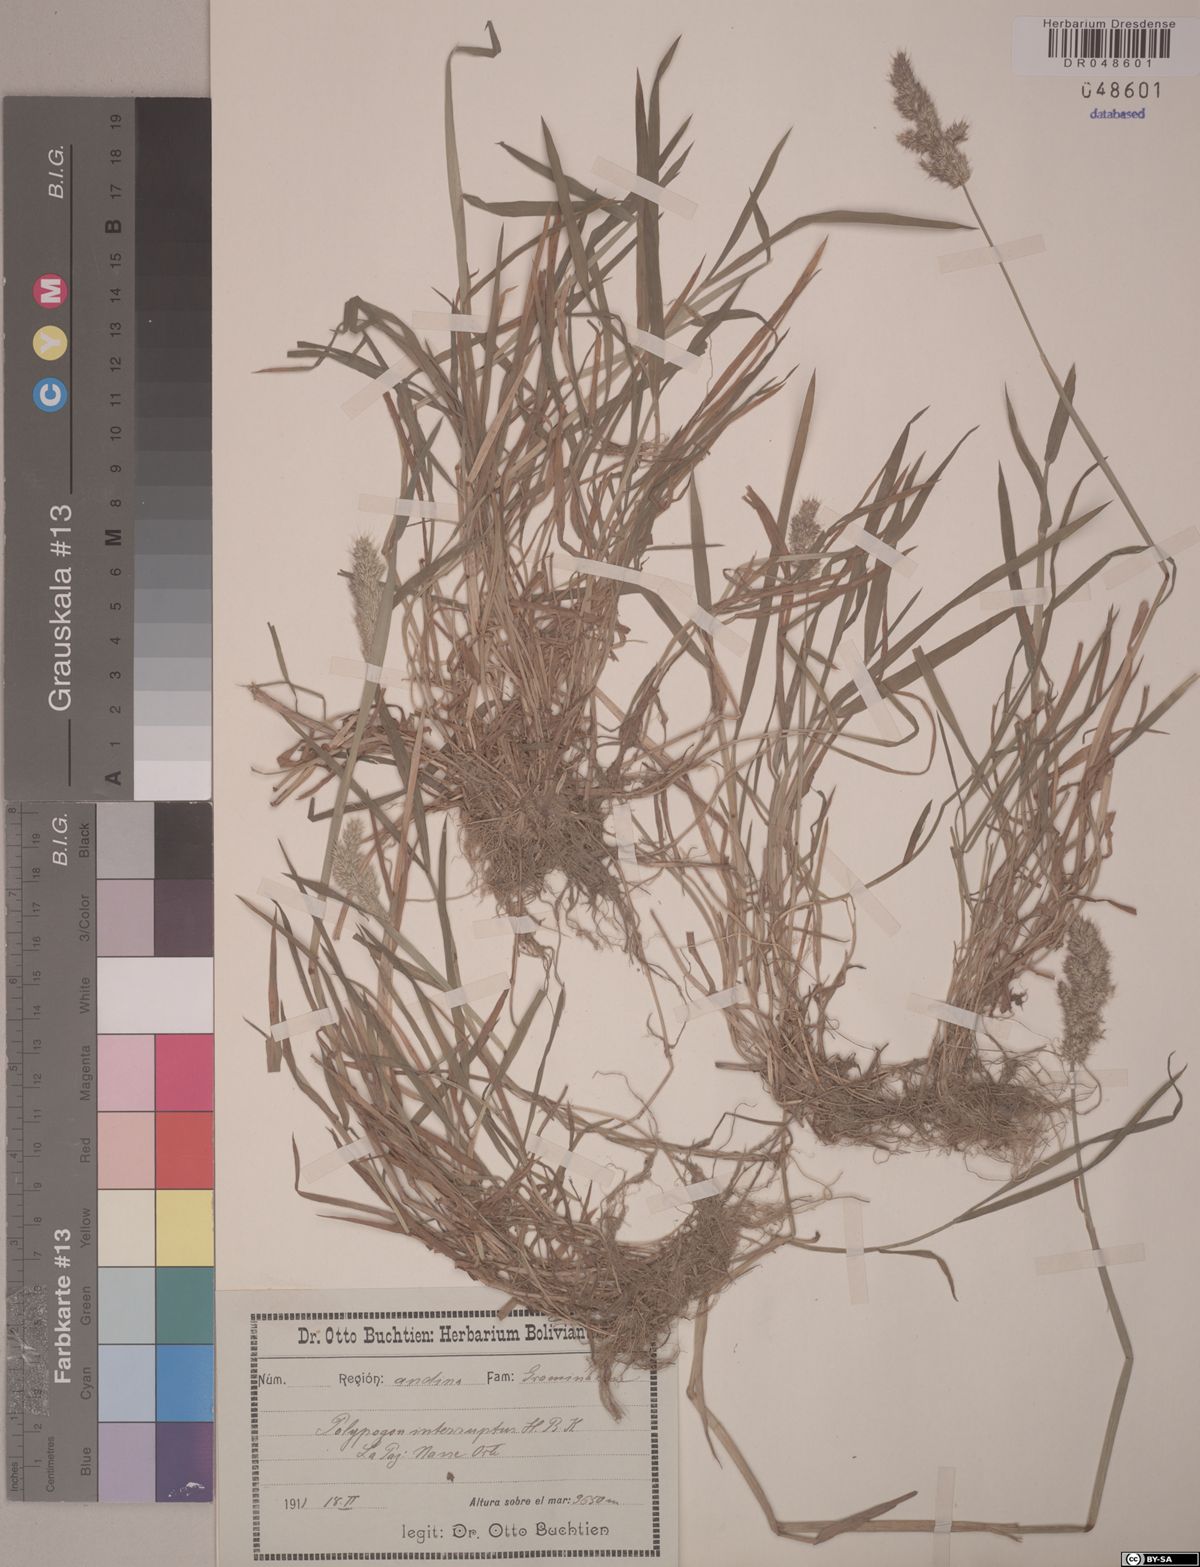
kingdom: Plantae
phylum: Tracheophyta
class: Liliopsida
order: Poales
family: Poaceae
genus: Polypogon
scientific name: Polypogon interruptus
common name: Ditch polypogon
